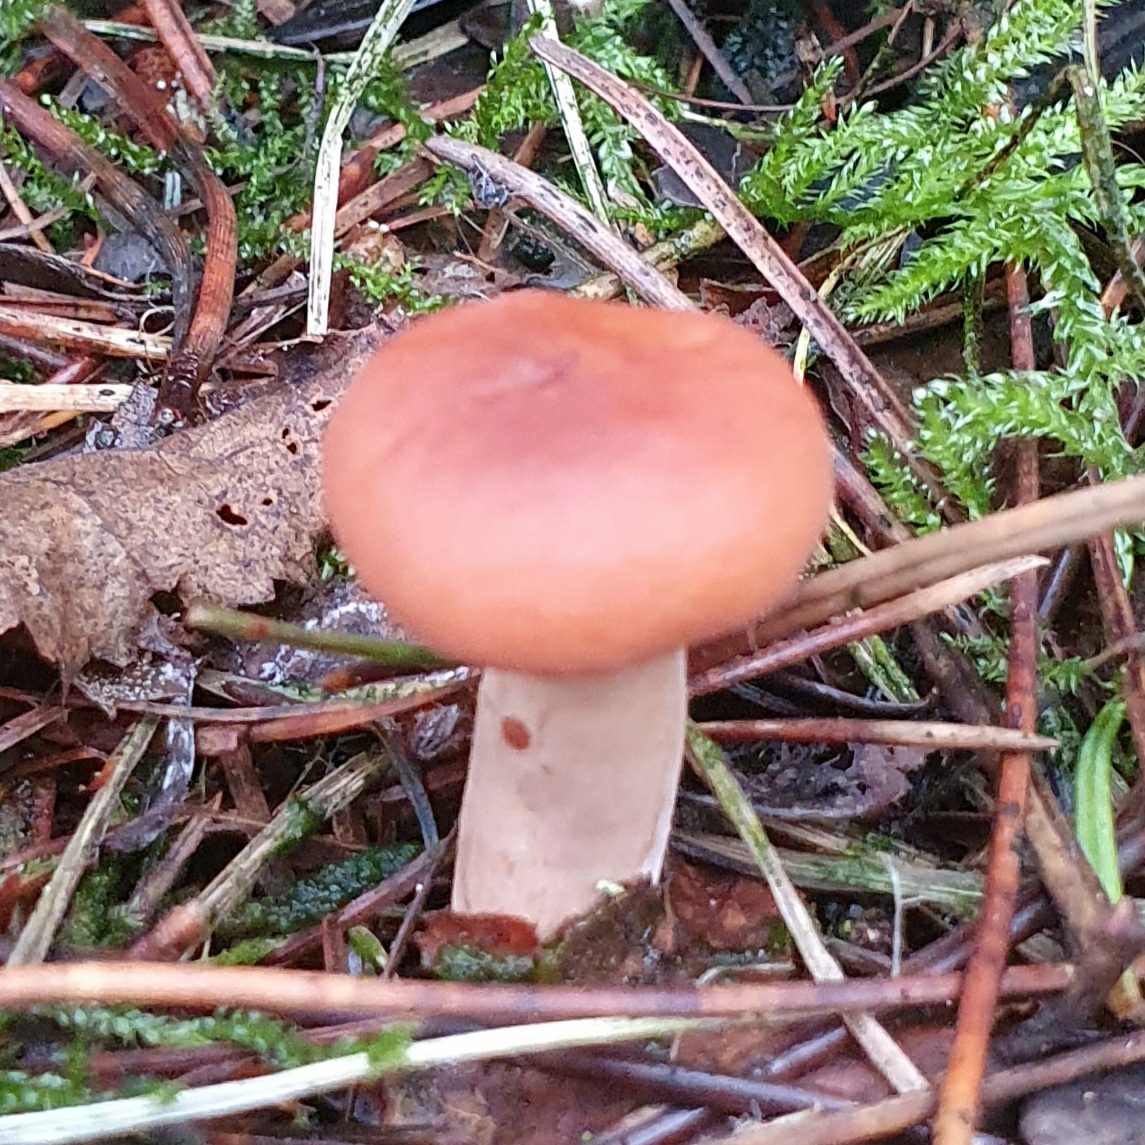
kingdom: Fungi
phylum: Basidiomycota
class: Agaricomycetes
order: Russulales
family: Russulaceae
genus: Lactarius
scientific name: Lactarius
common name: mælkehat
